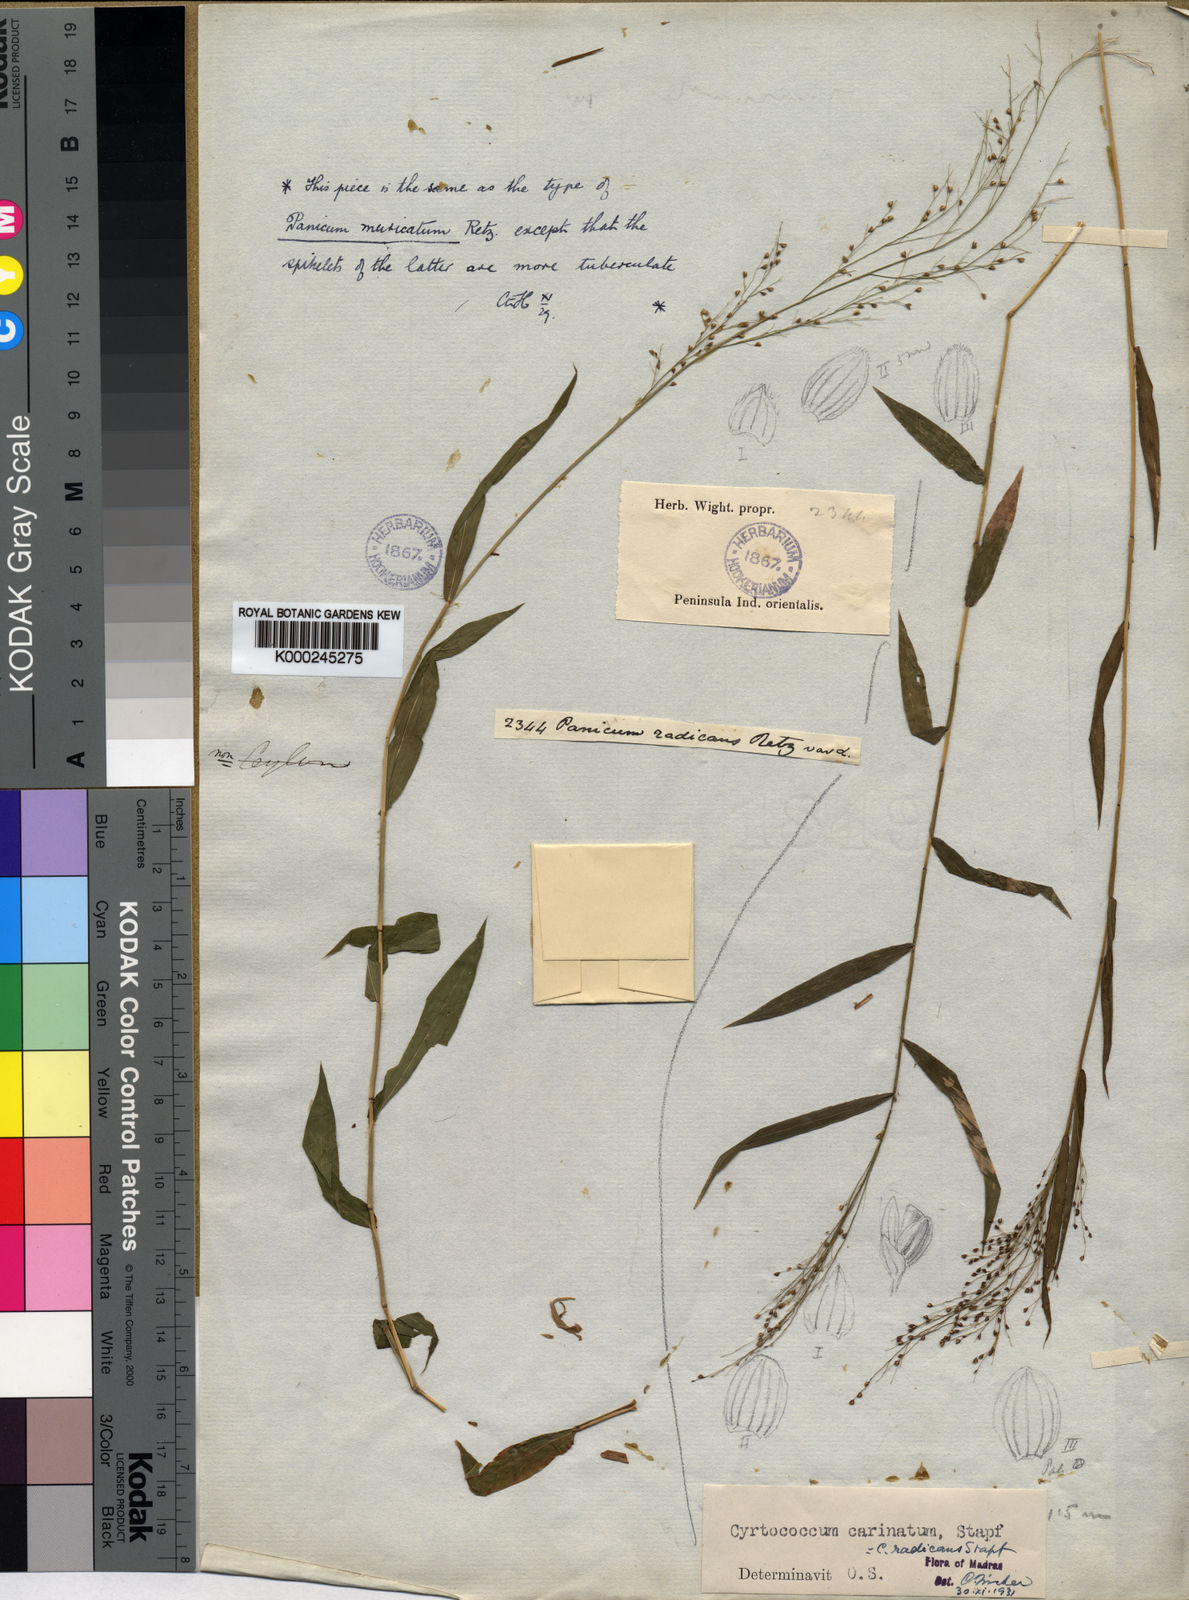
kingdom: Plantae
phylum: Tracheophyta
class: Liliopsida
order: Poales
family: Poaceae
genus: Cyrtococcum
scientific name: Cyrtococcum patens
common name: Broad-leaved bowgrass
